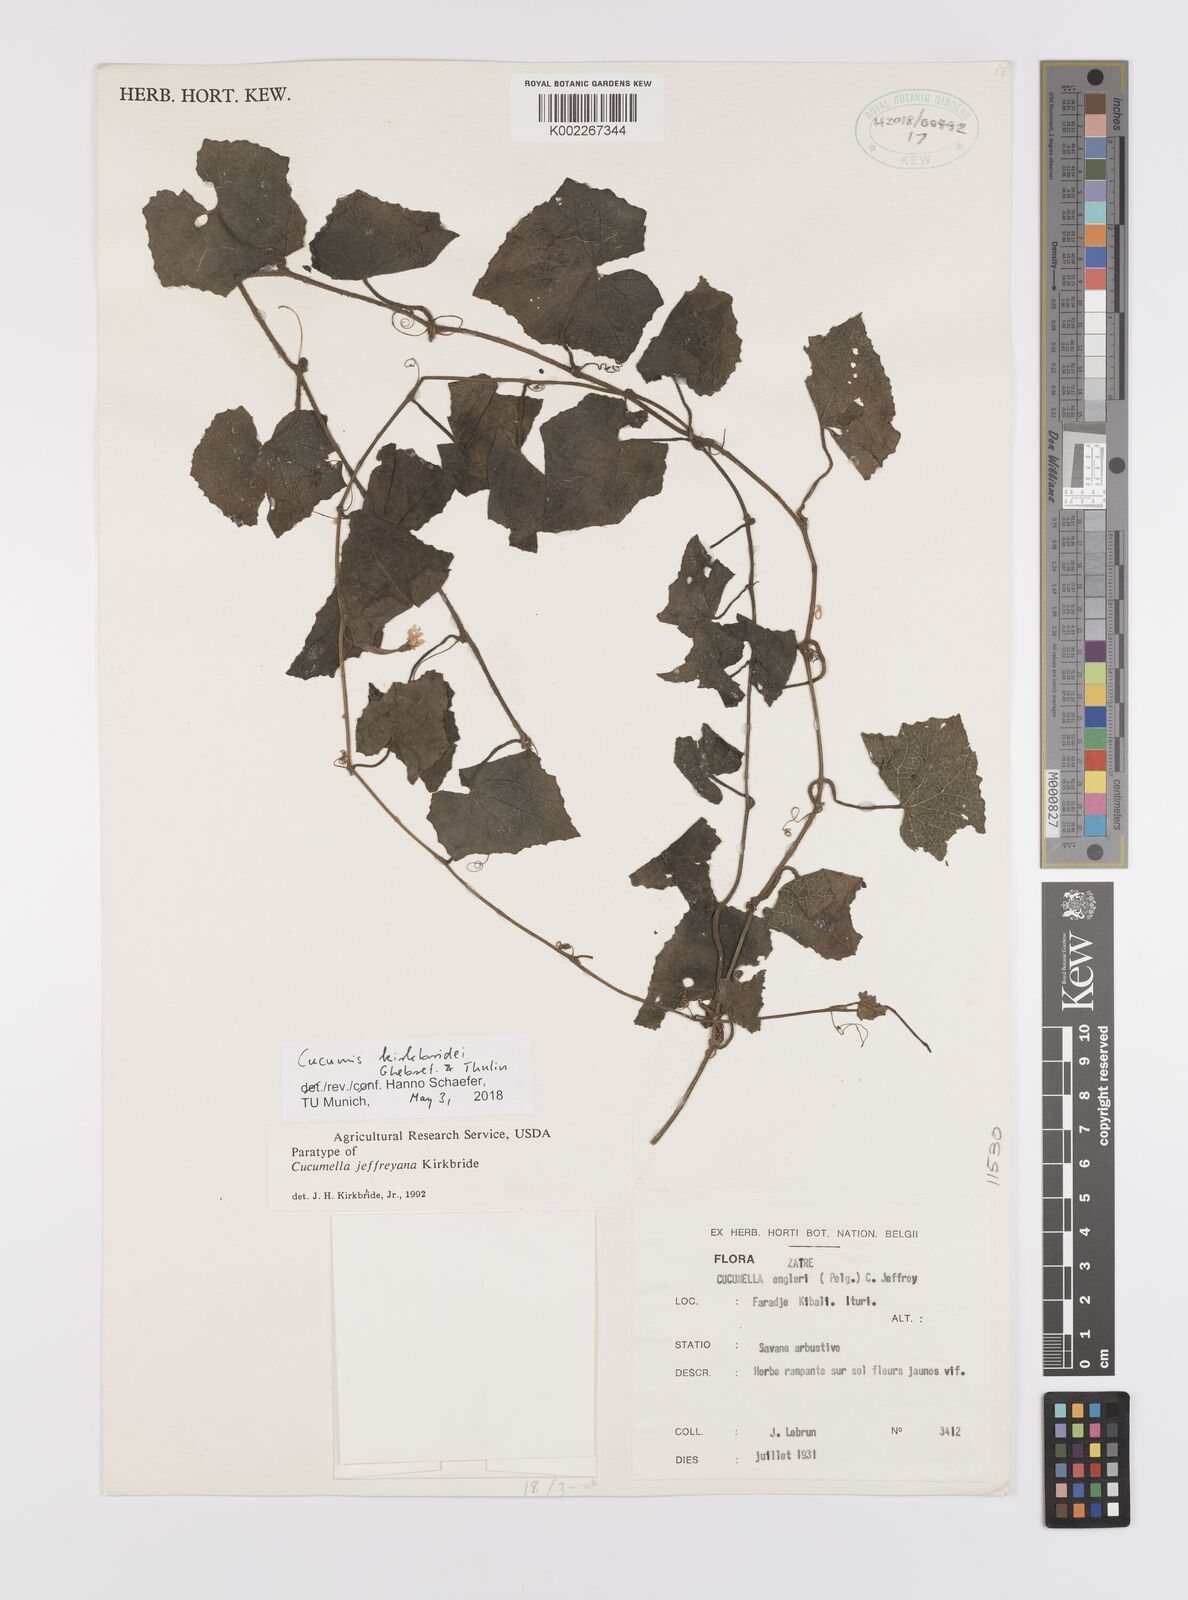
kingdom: Plantae
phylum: Tracheophyta
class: Magnoliopsida
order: Cucurbitales
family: Cucurbitaceae
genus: Cucumis
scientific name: Cucumis kirkbridei
